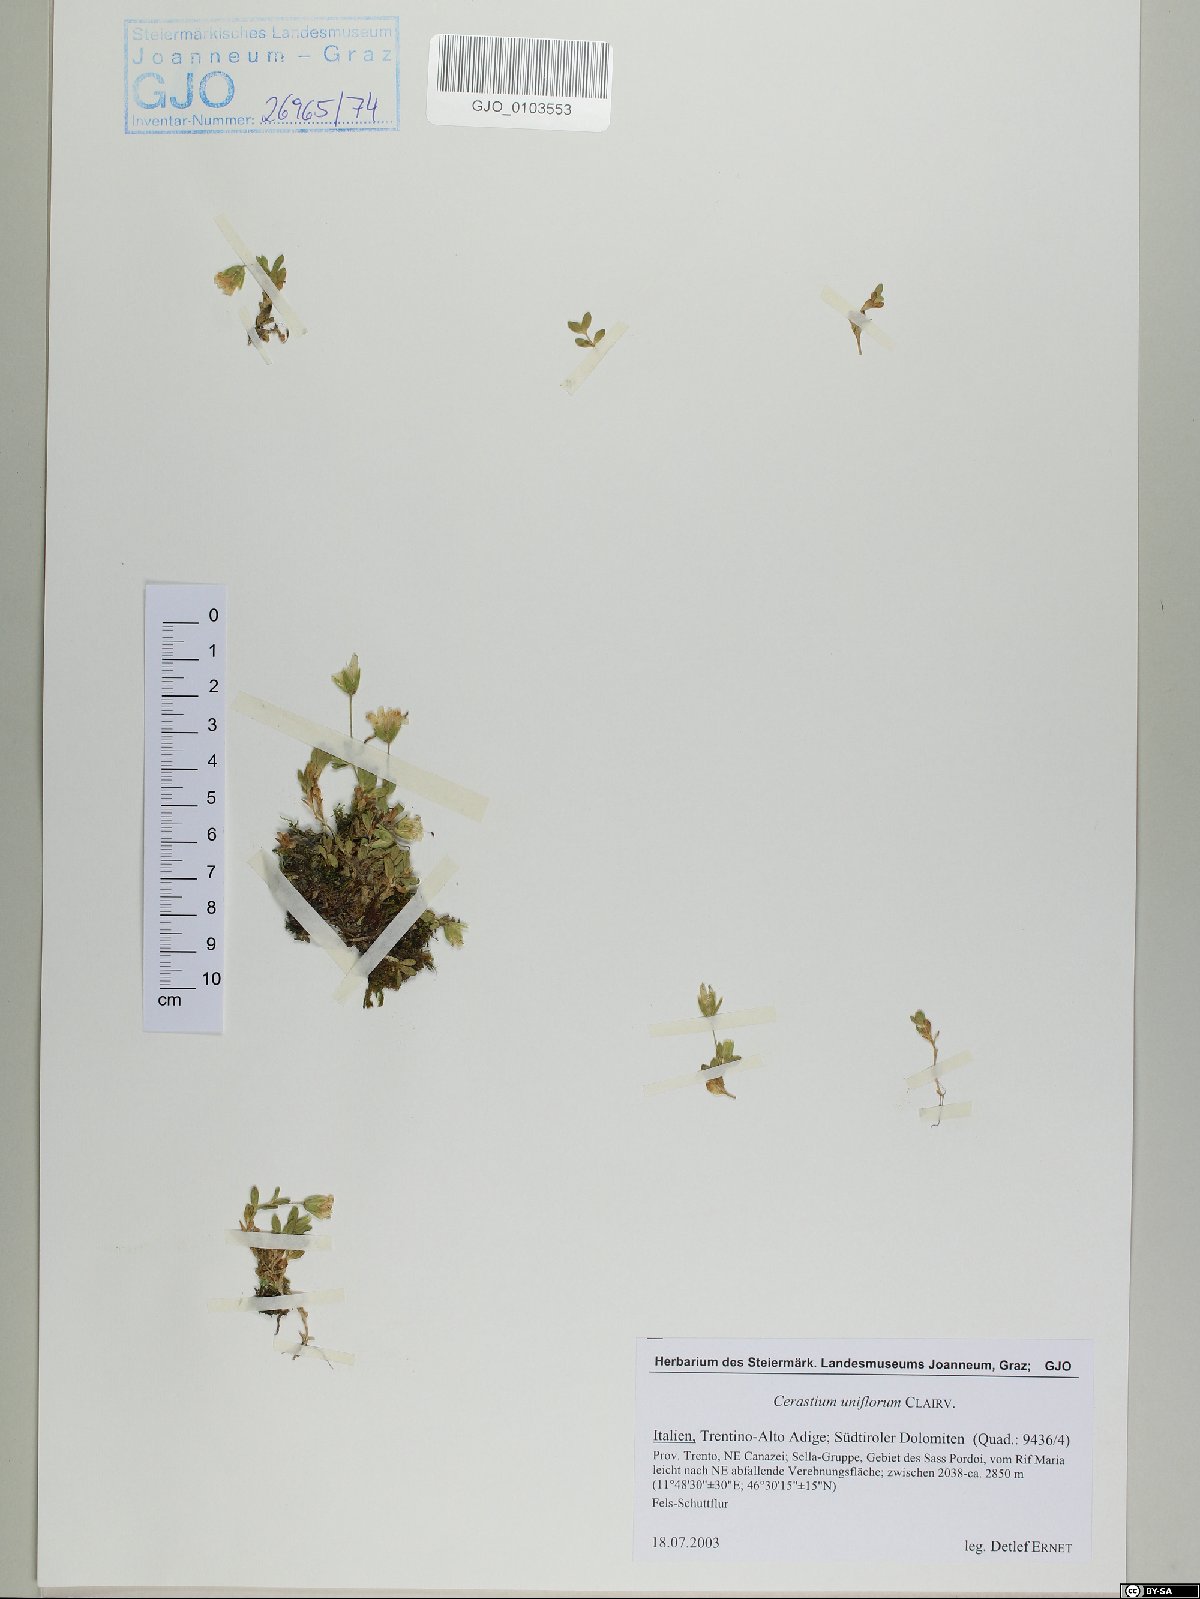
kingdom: Plantae
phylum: Tracheophyta
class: Magnoliopsida
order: Caryophyllales
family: Caryophyllaceae
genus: Cerastium
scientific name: Cerastium uniflorum
